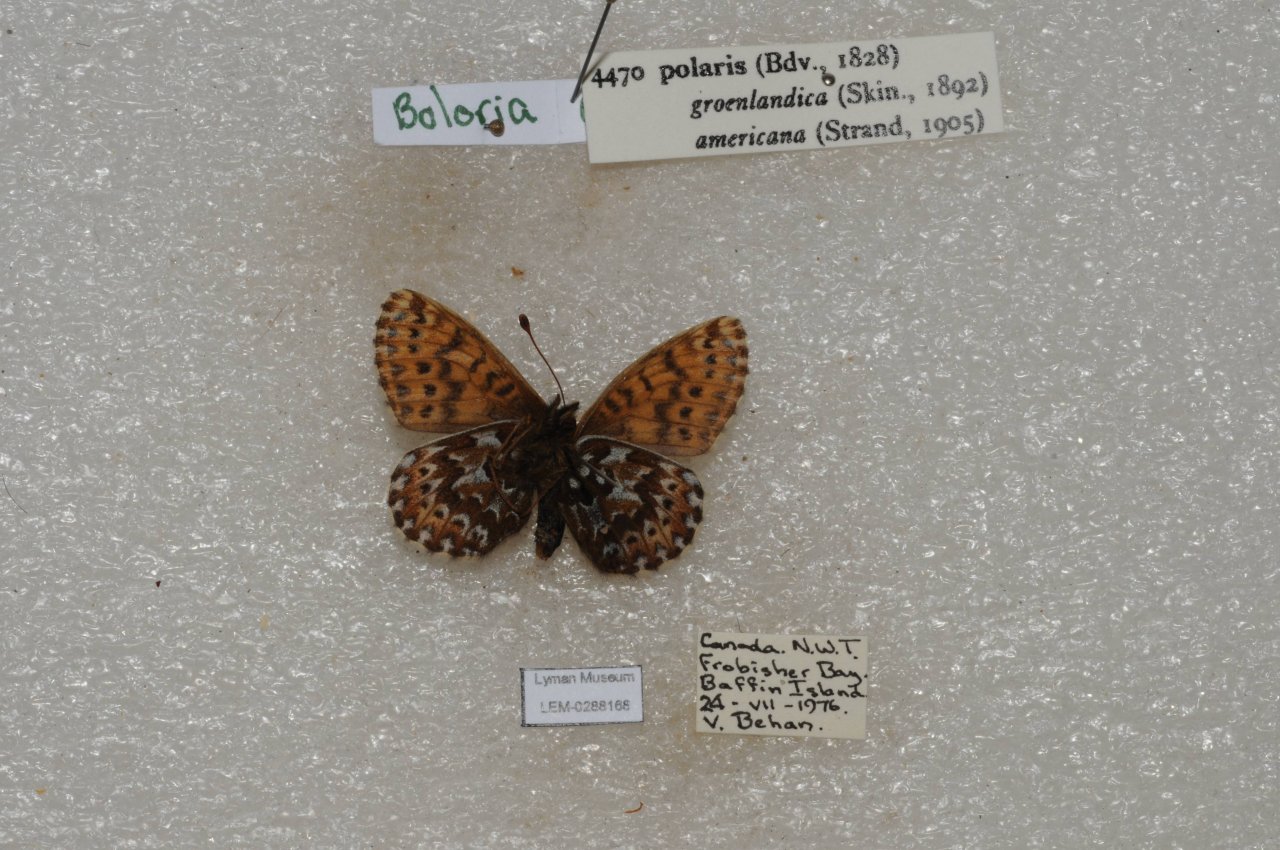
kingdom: Animalia
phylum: Arthropoda
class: Insecta
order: Lepidoptera
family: Nymphalidae
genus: Clossiana
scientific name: Clossiana polaris
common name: Polaris Fritillary
